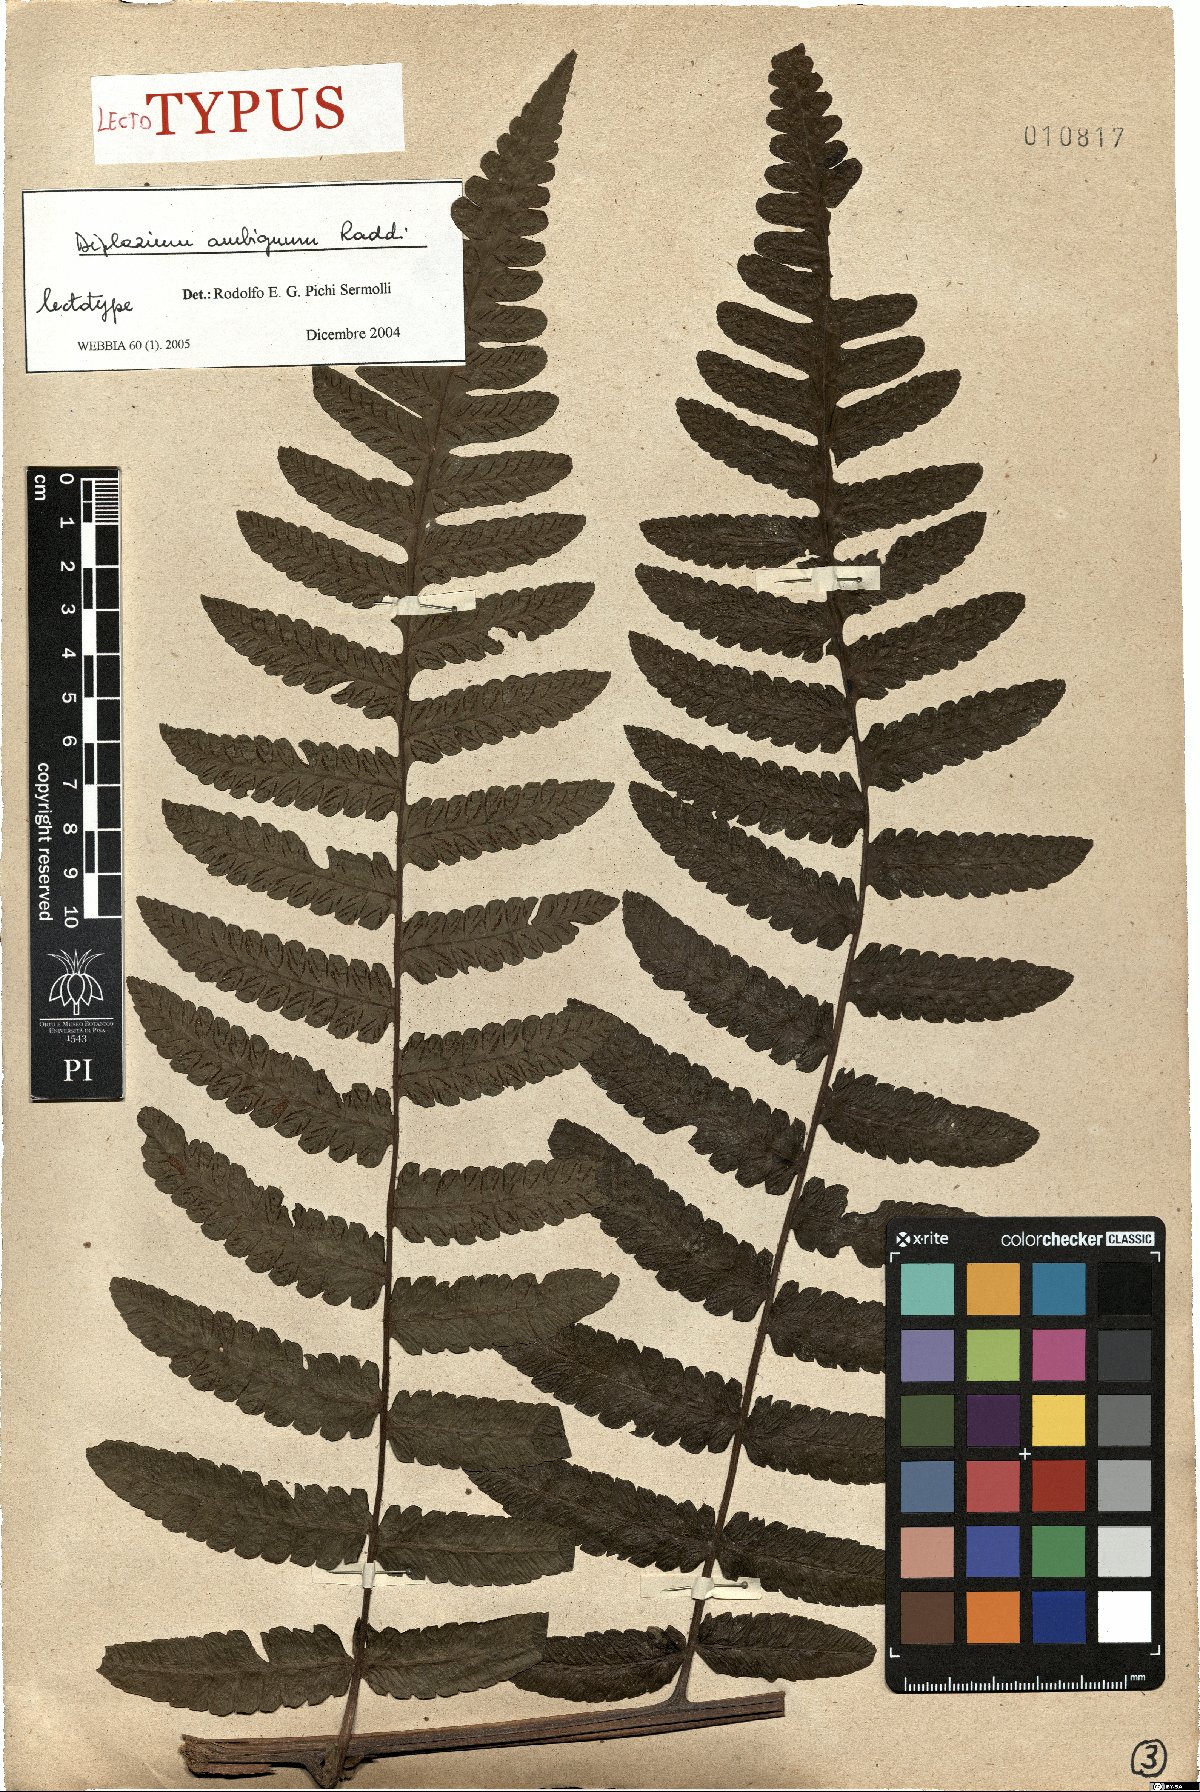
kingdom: Plantae
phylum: Tracheophyta
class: Polypodiopsida
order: Polypodiales
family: Athyriaceae
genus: Diplazium
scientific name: Diplazium ambiguum
